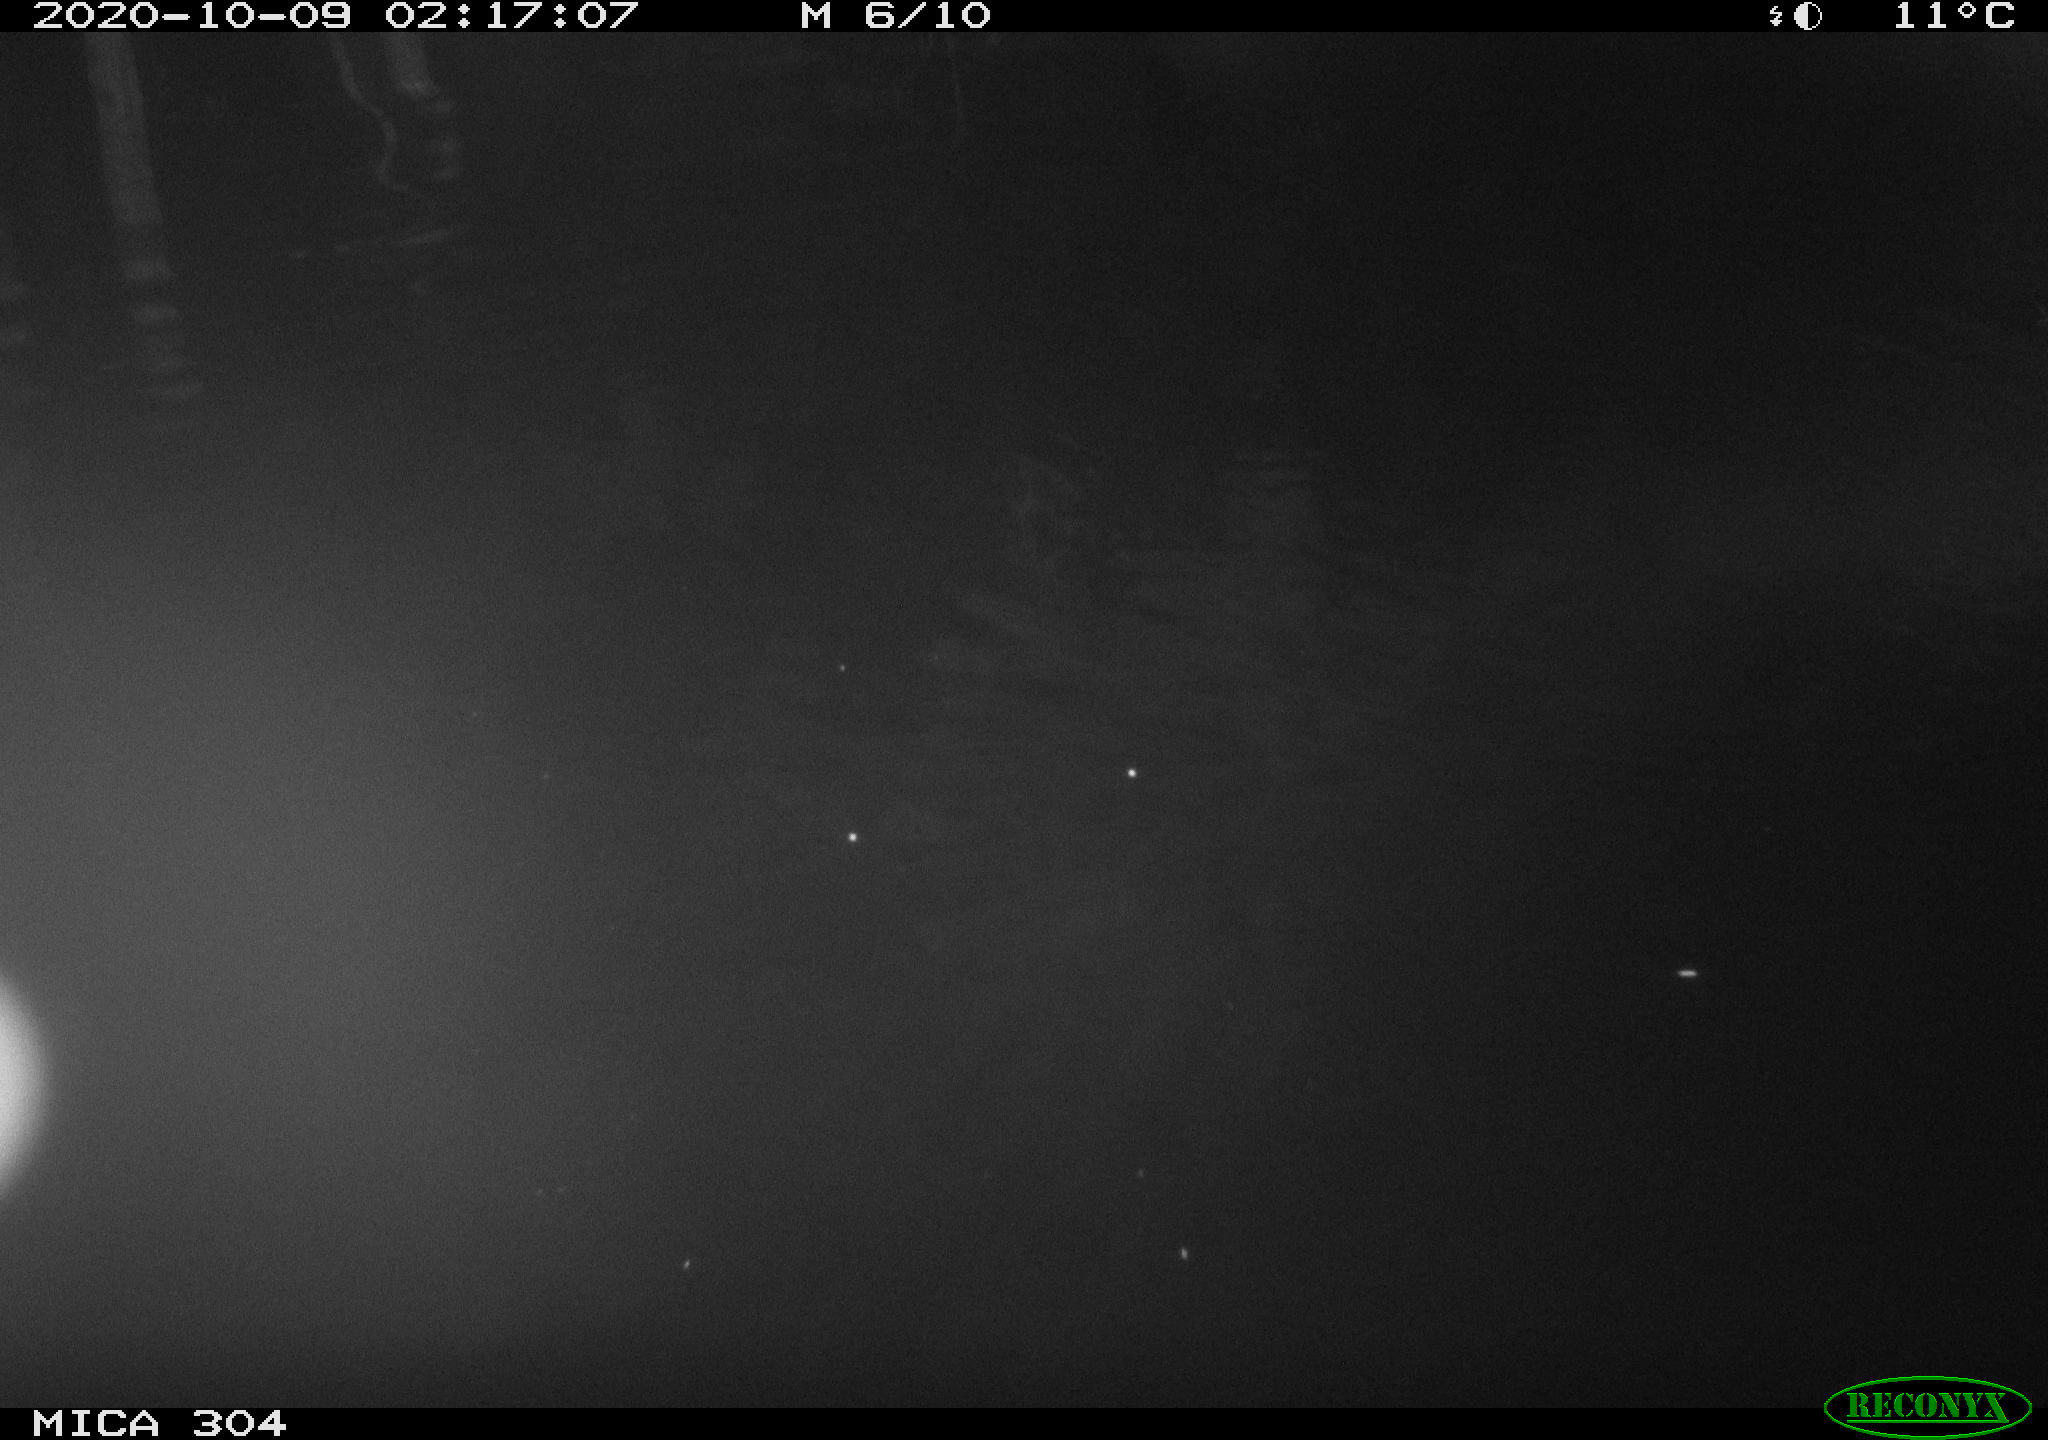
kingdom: Animalia
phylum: Chordata
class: Mammalia
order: Rodentia
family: Muridae
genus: Rattus
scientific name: Rattus norvegicus
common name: Brown rat
